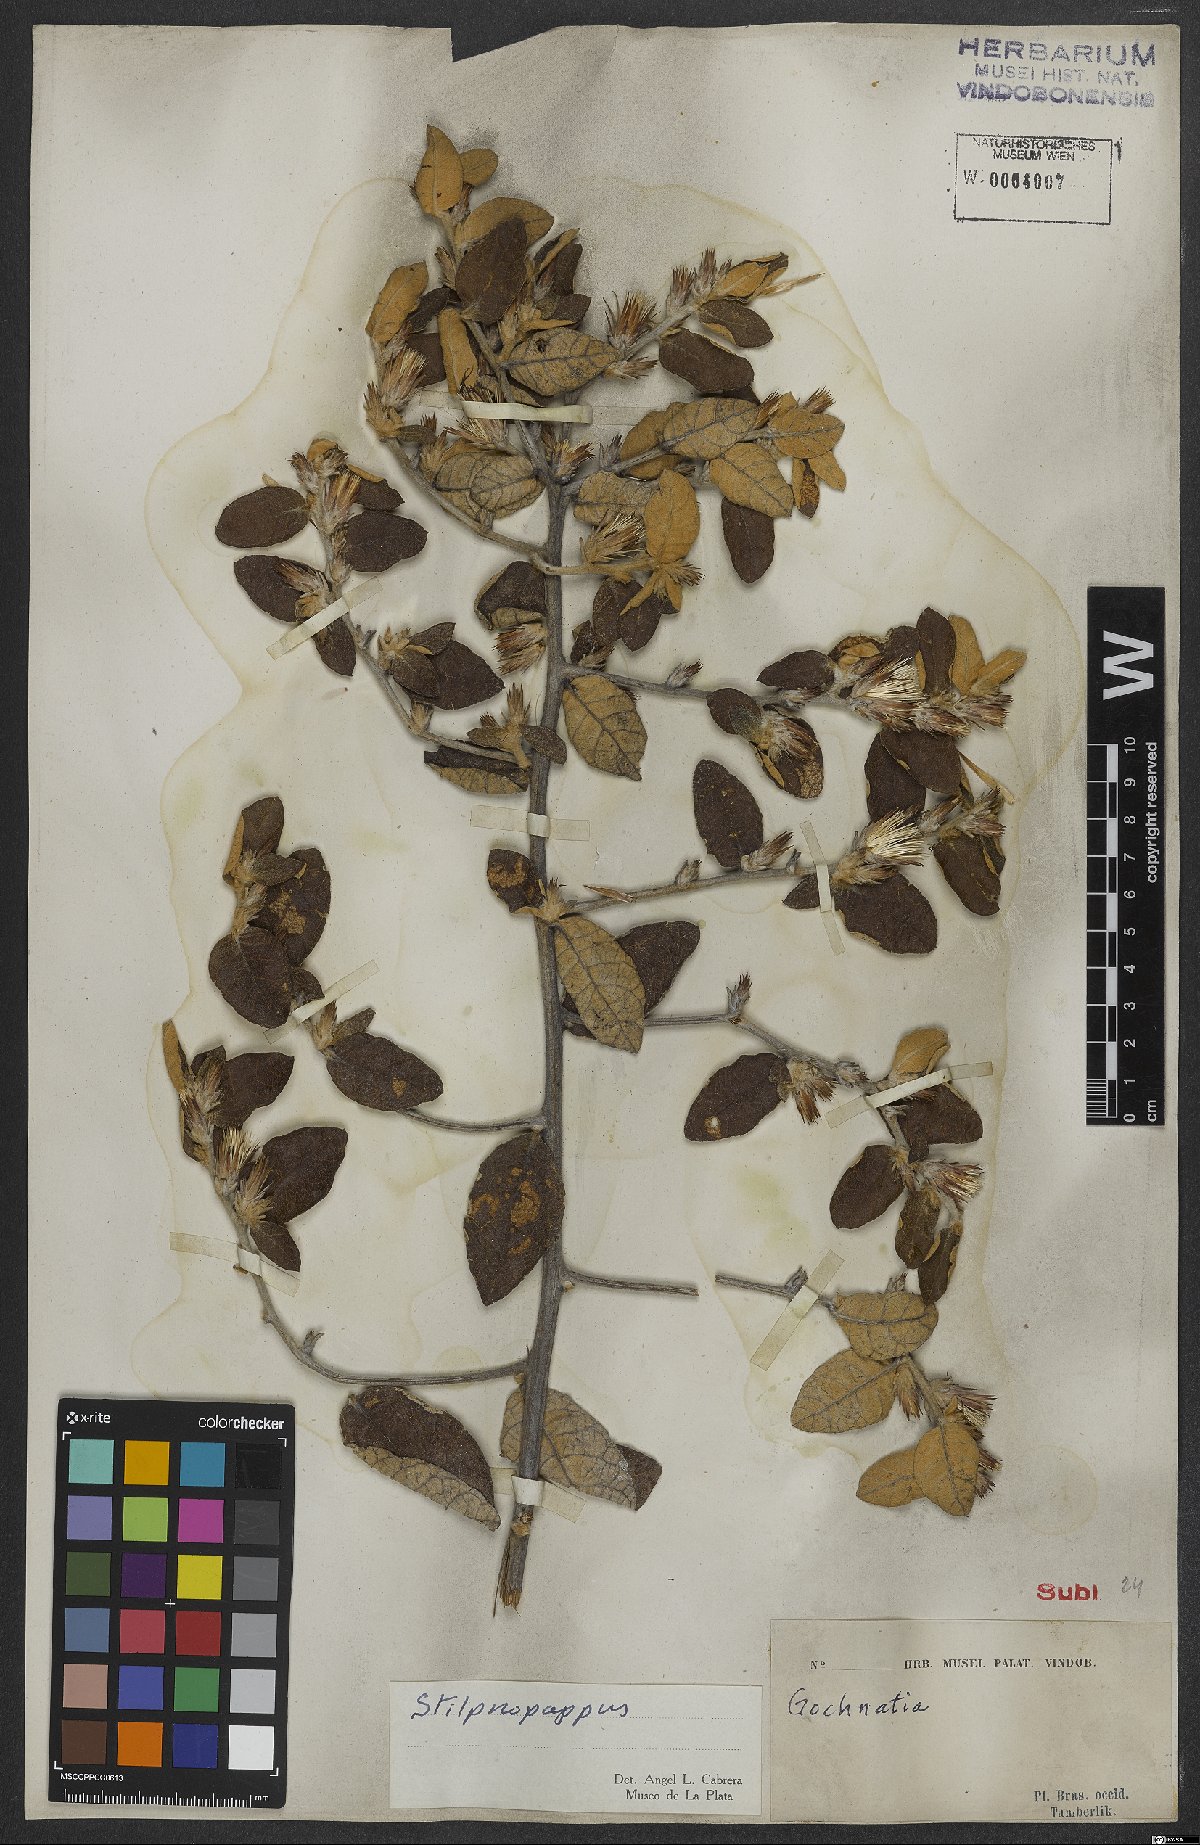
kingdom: Plantae
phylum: Tracheophyta
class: Magnoliopsida
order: Asterales
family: Asteraceae
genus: Stilpnopappus
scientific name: Stilpnopappus
